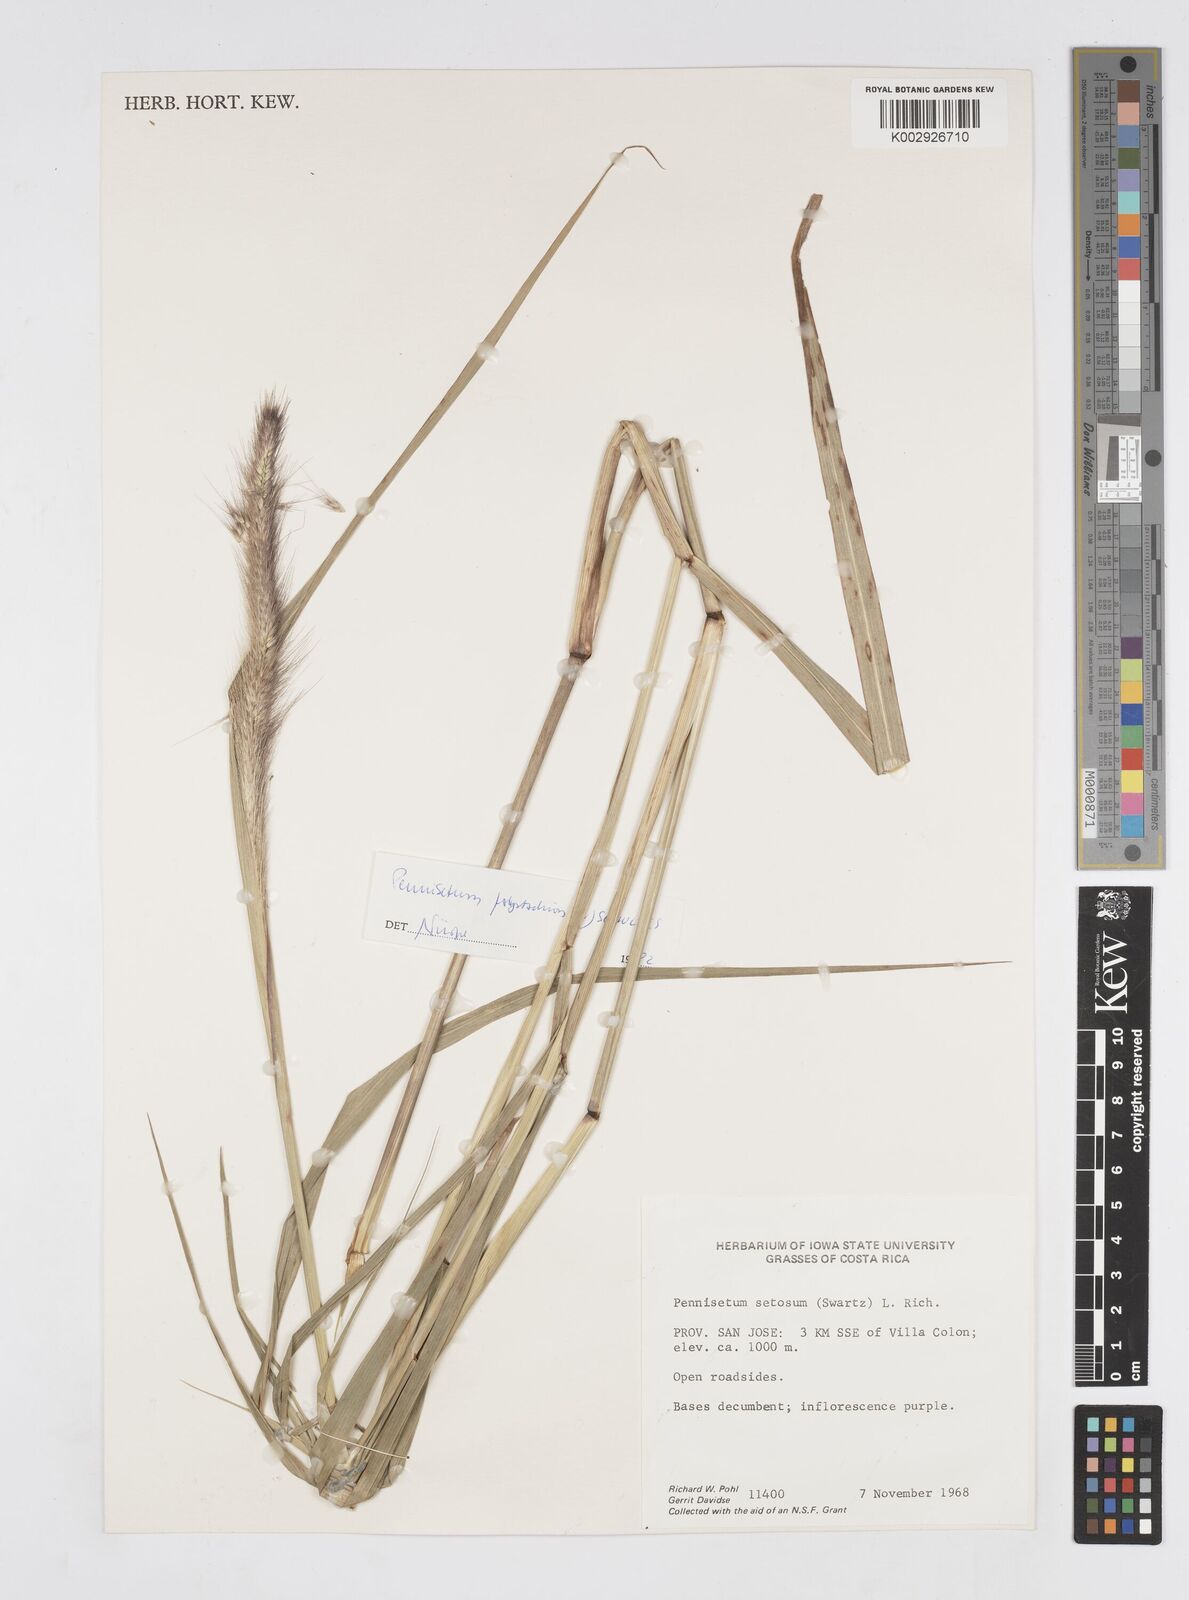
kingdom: Plantae
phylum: Tracheophyta
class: Liliopsida
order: Poales
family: Poaceae
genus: Cenchrus
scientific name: Cenchrus setosus
